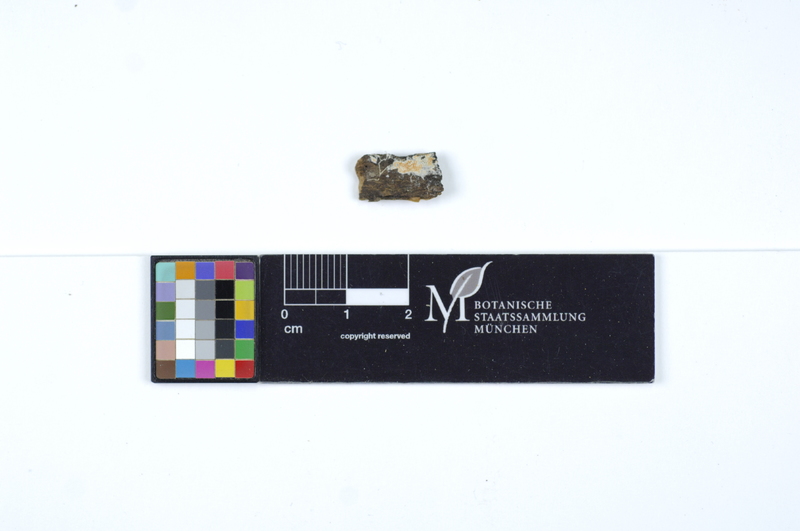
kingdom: Fungi
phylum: Basidiomycota
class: Agaricomycetes
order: Polyporales
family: Meruliaceae
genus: Hydnophlebia
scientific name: Hydnophlebia alachuana
